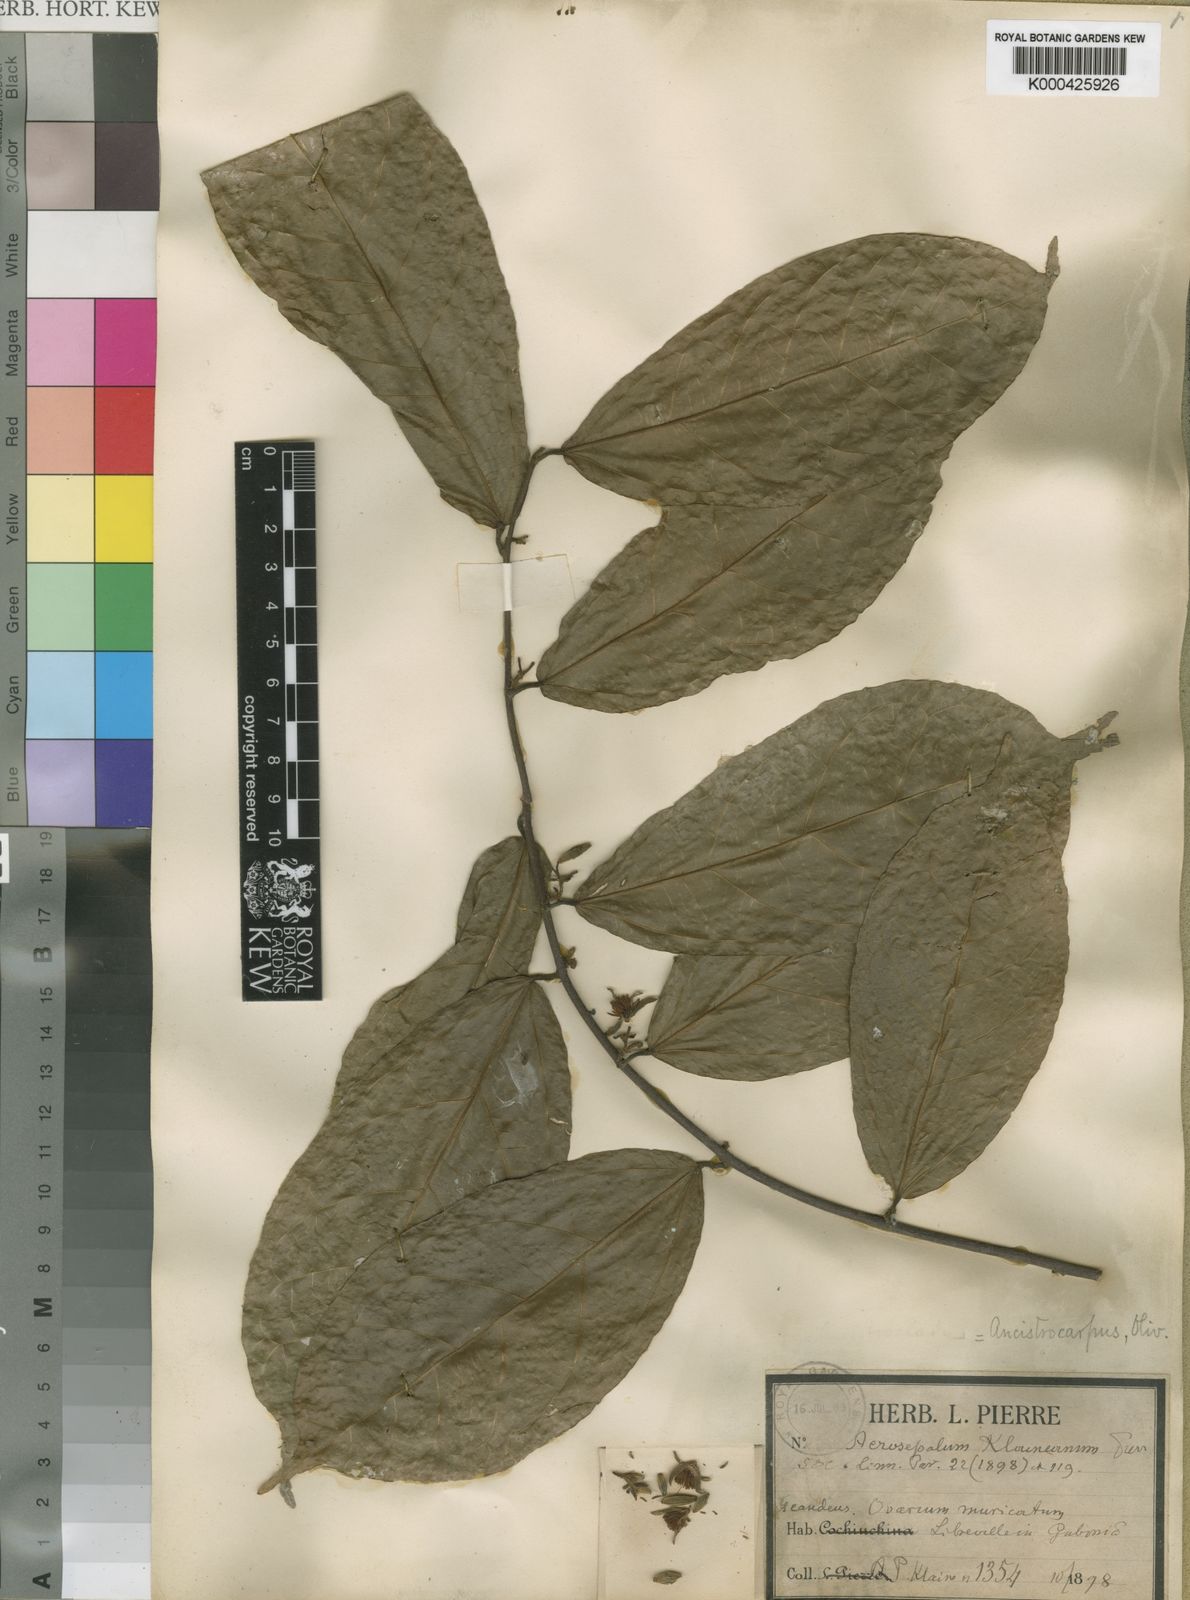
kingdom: Plantae
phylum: Tracheophyta
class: Magnoliopsida
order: Malvales
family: Malvaceae
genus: Ancistrocarpus
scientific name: Ancistrocarpus densispinosus
